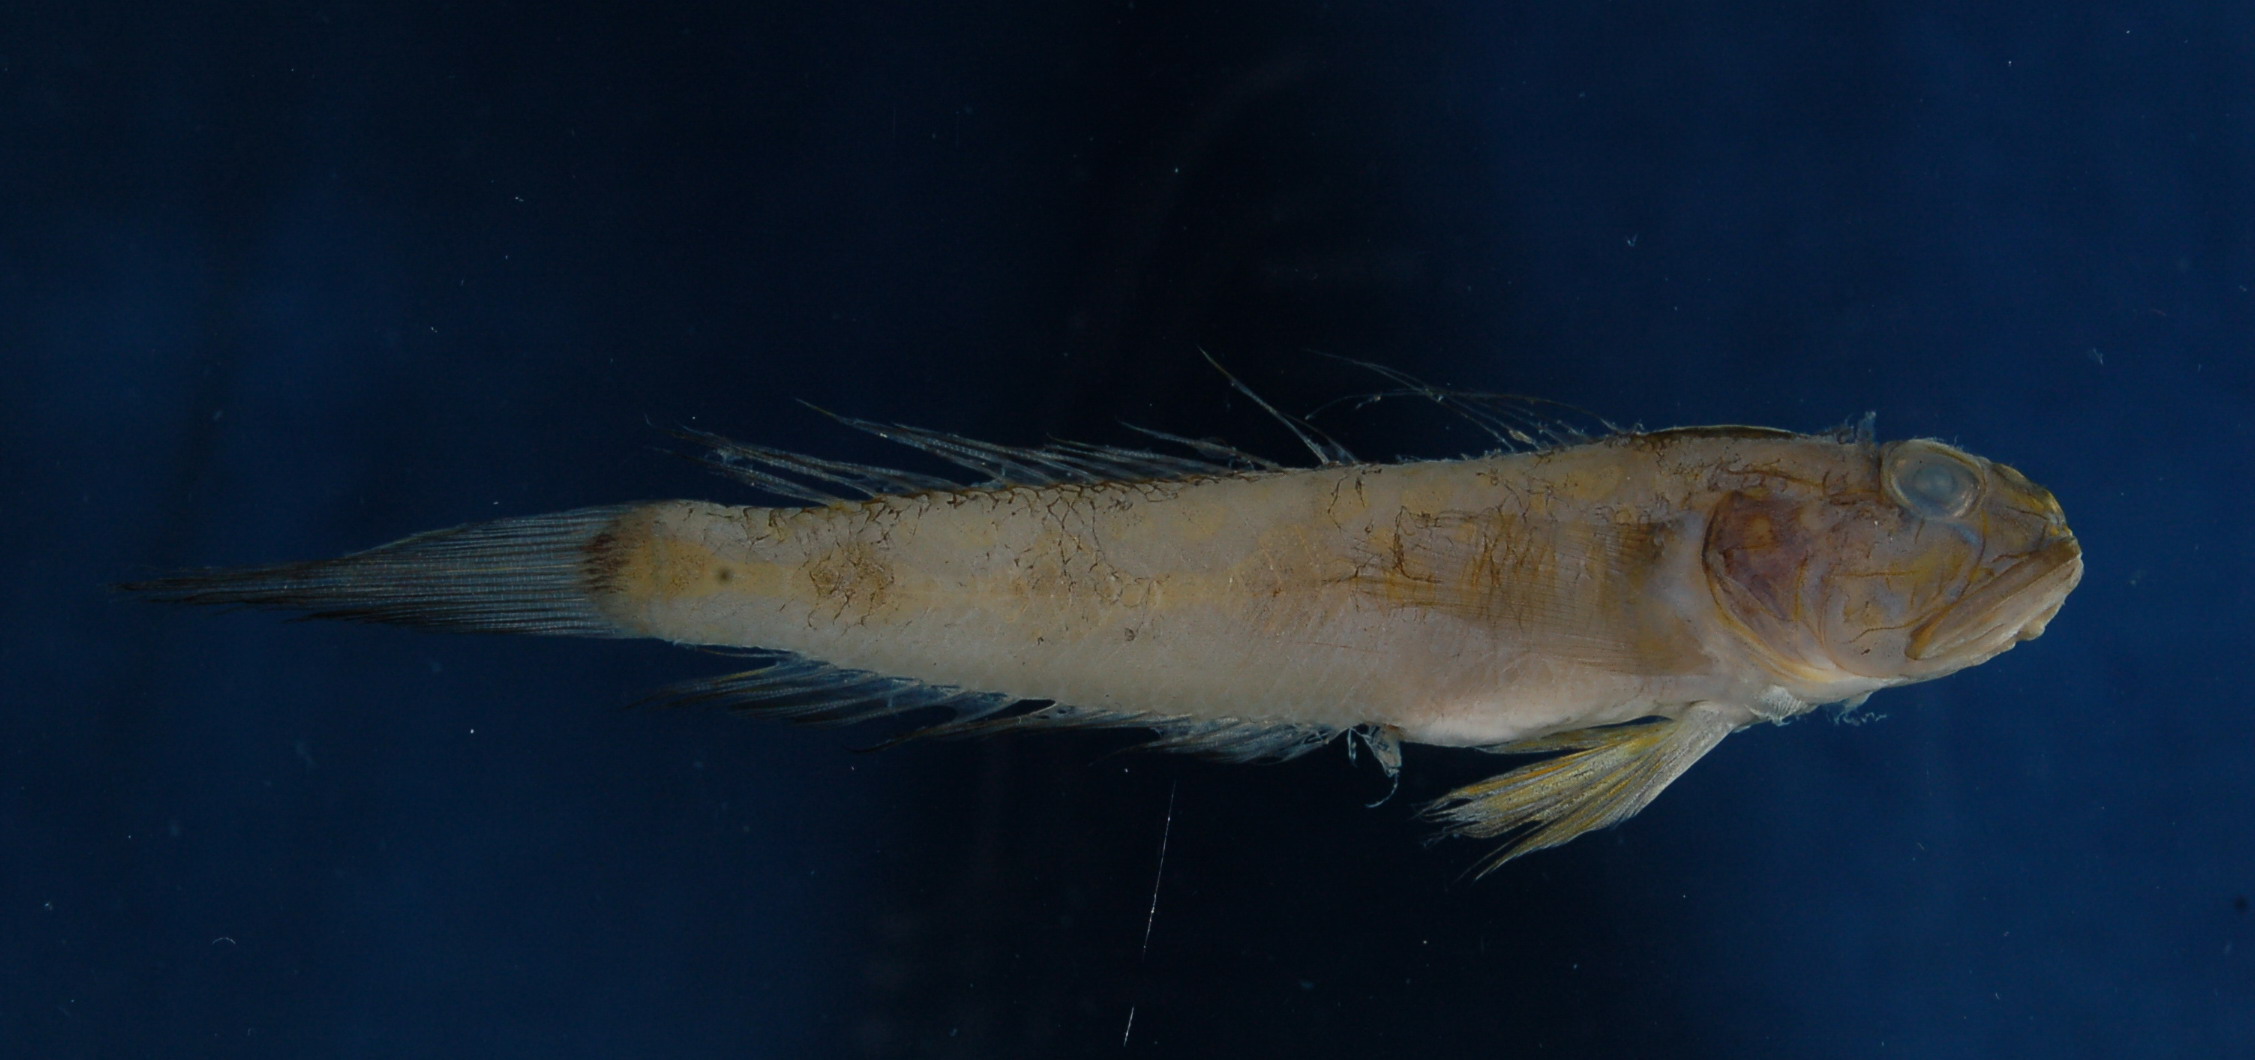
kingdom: Animalia
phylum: Chordata
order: Perciformes
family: Gobiidae
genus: Oxyurichthys
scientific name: Oxyurichthys microlepis
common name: Maned goby
